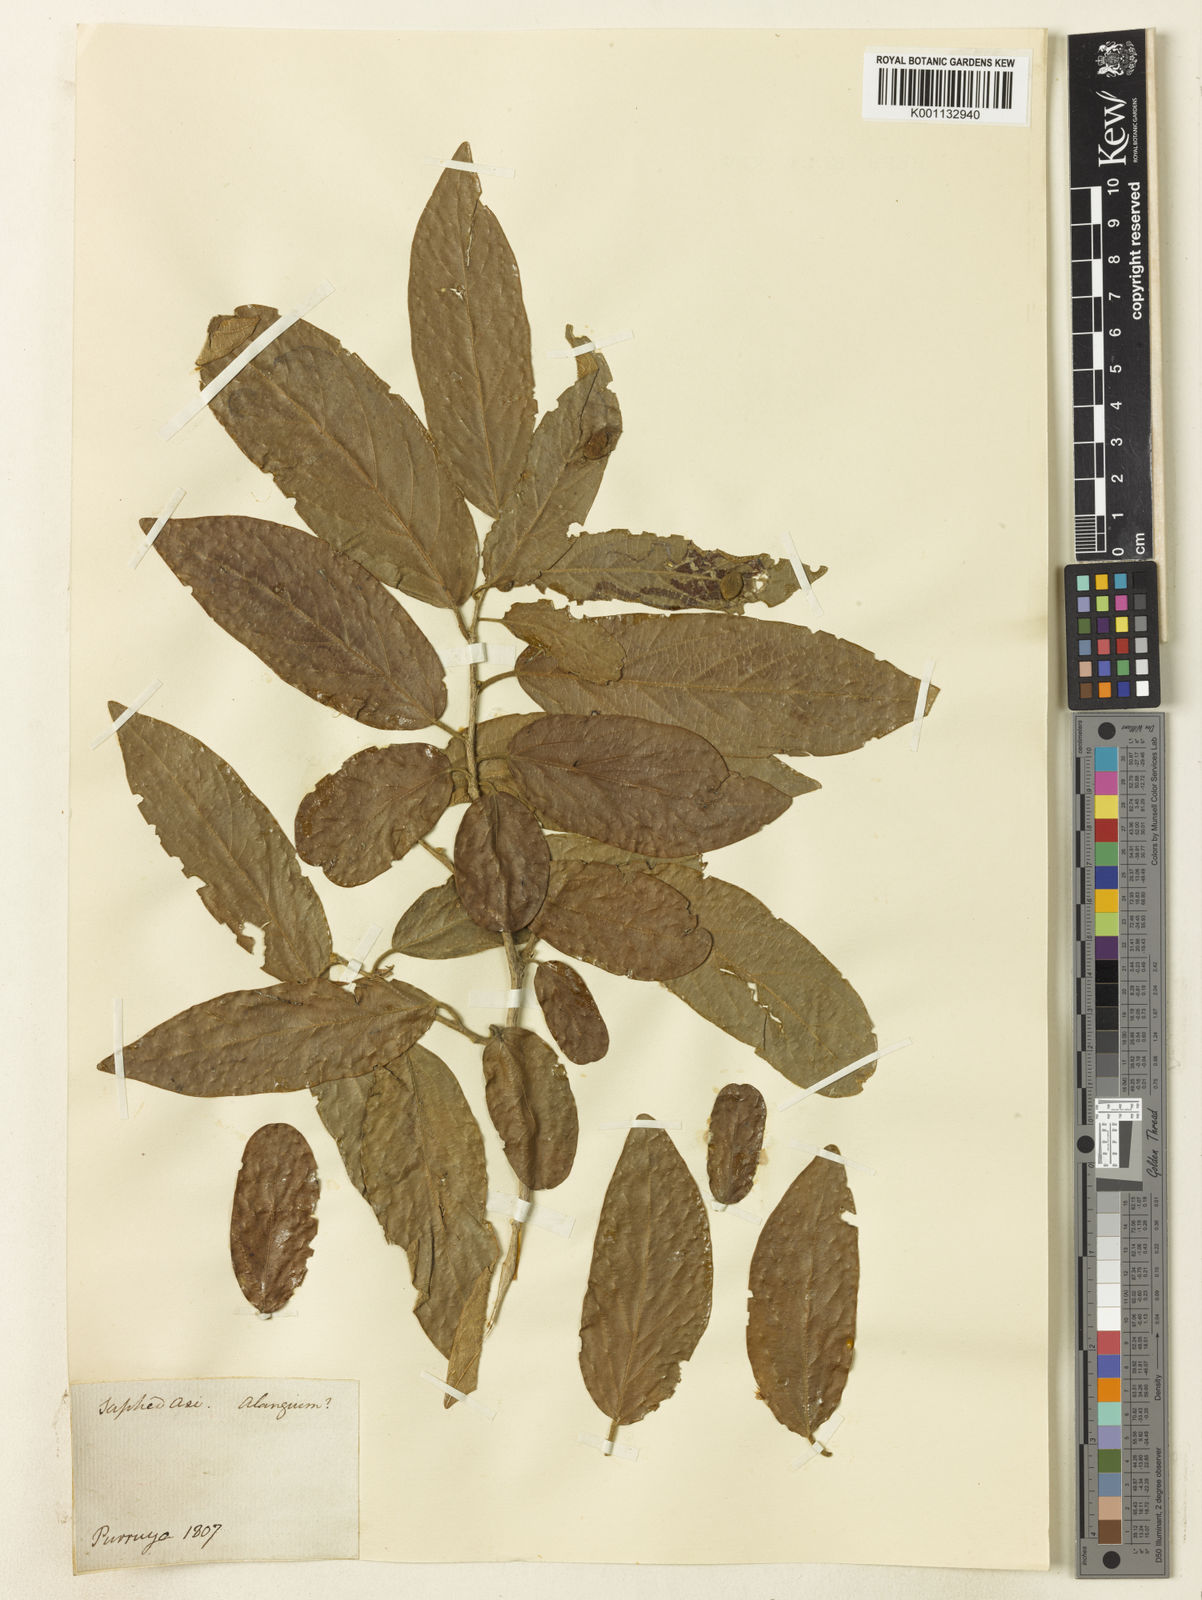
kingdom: Plantae
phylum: Tracheophyta
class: Magnoliopsida
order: Cornales
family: Cornaceae
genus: Alangium
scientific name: Alangium
